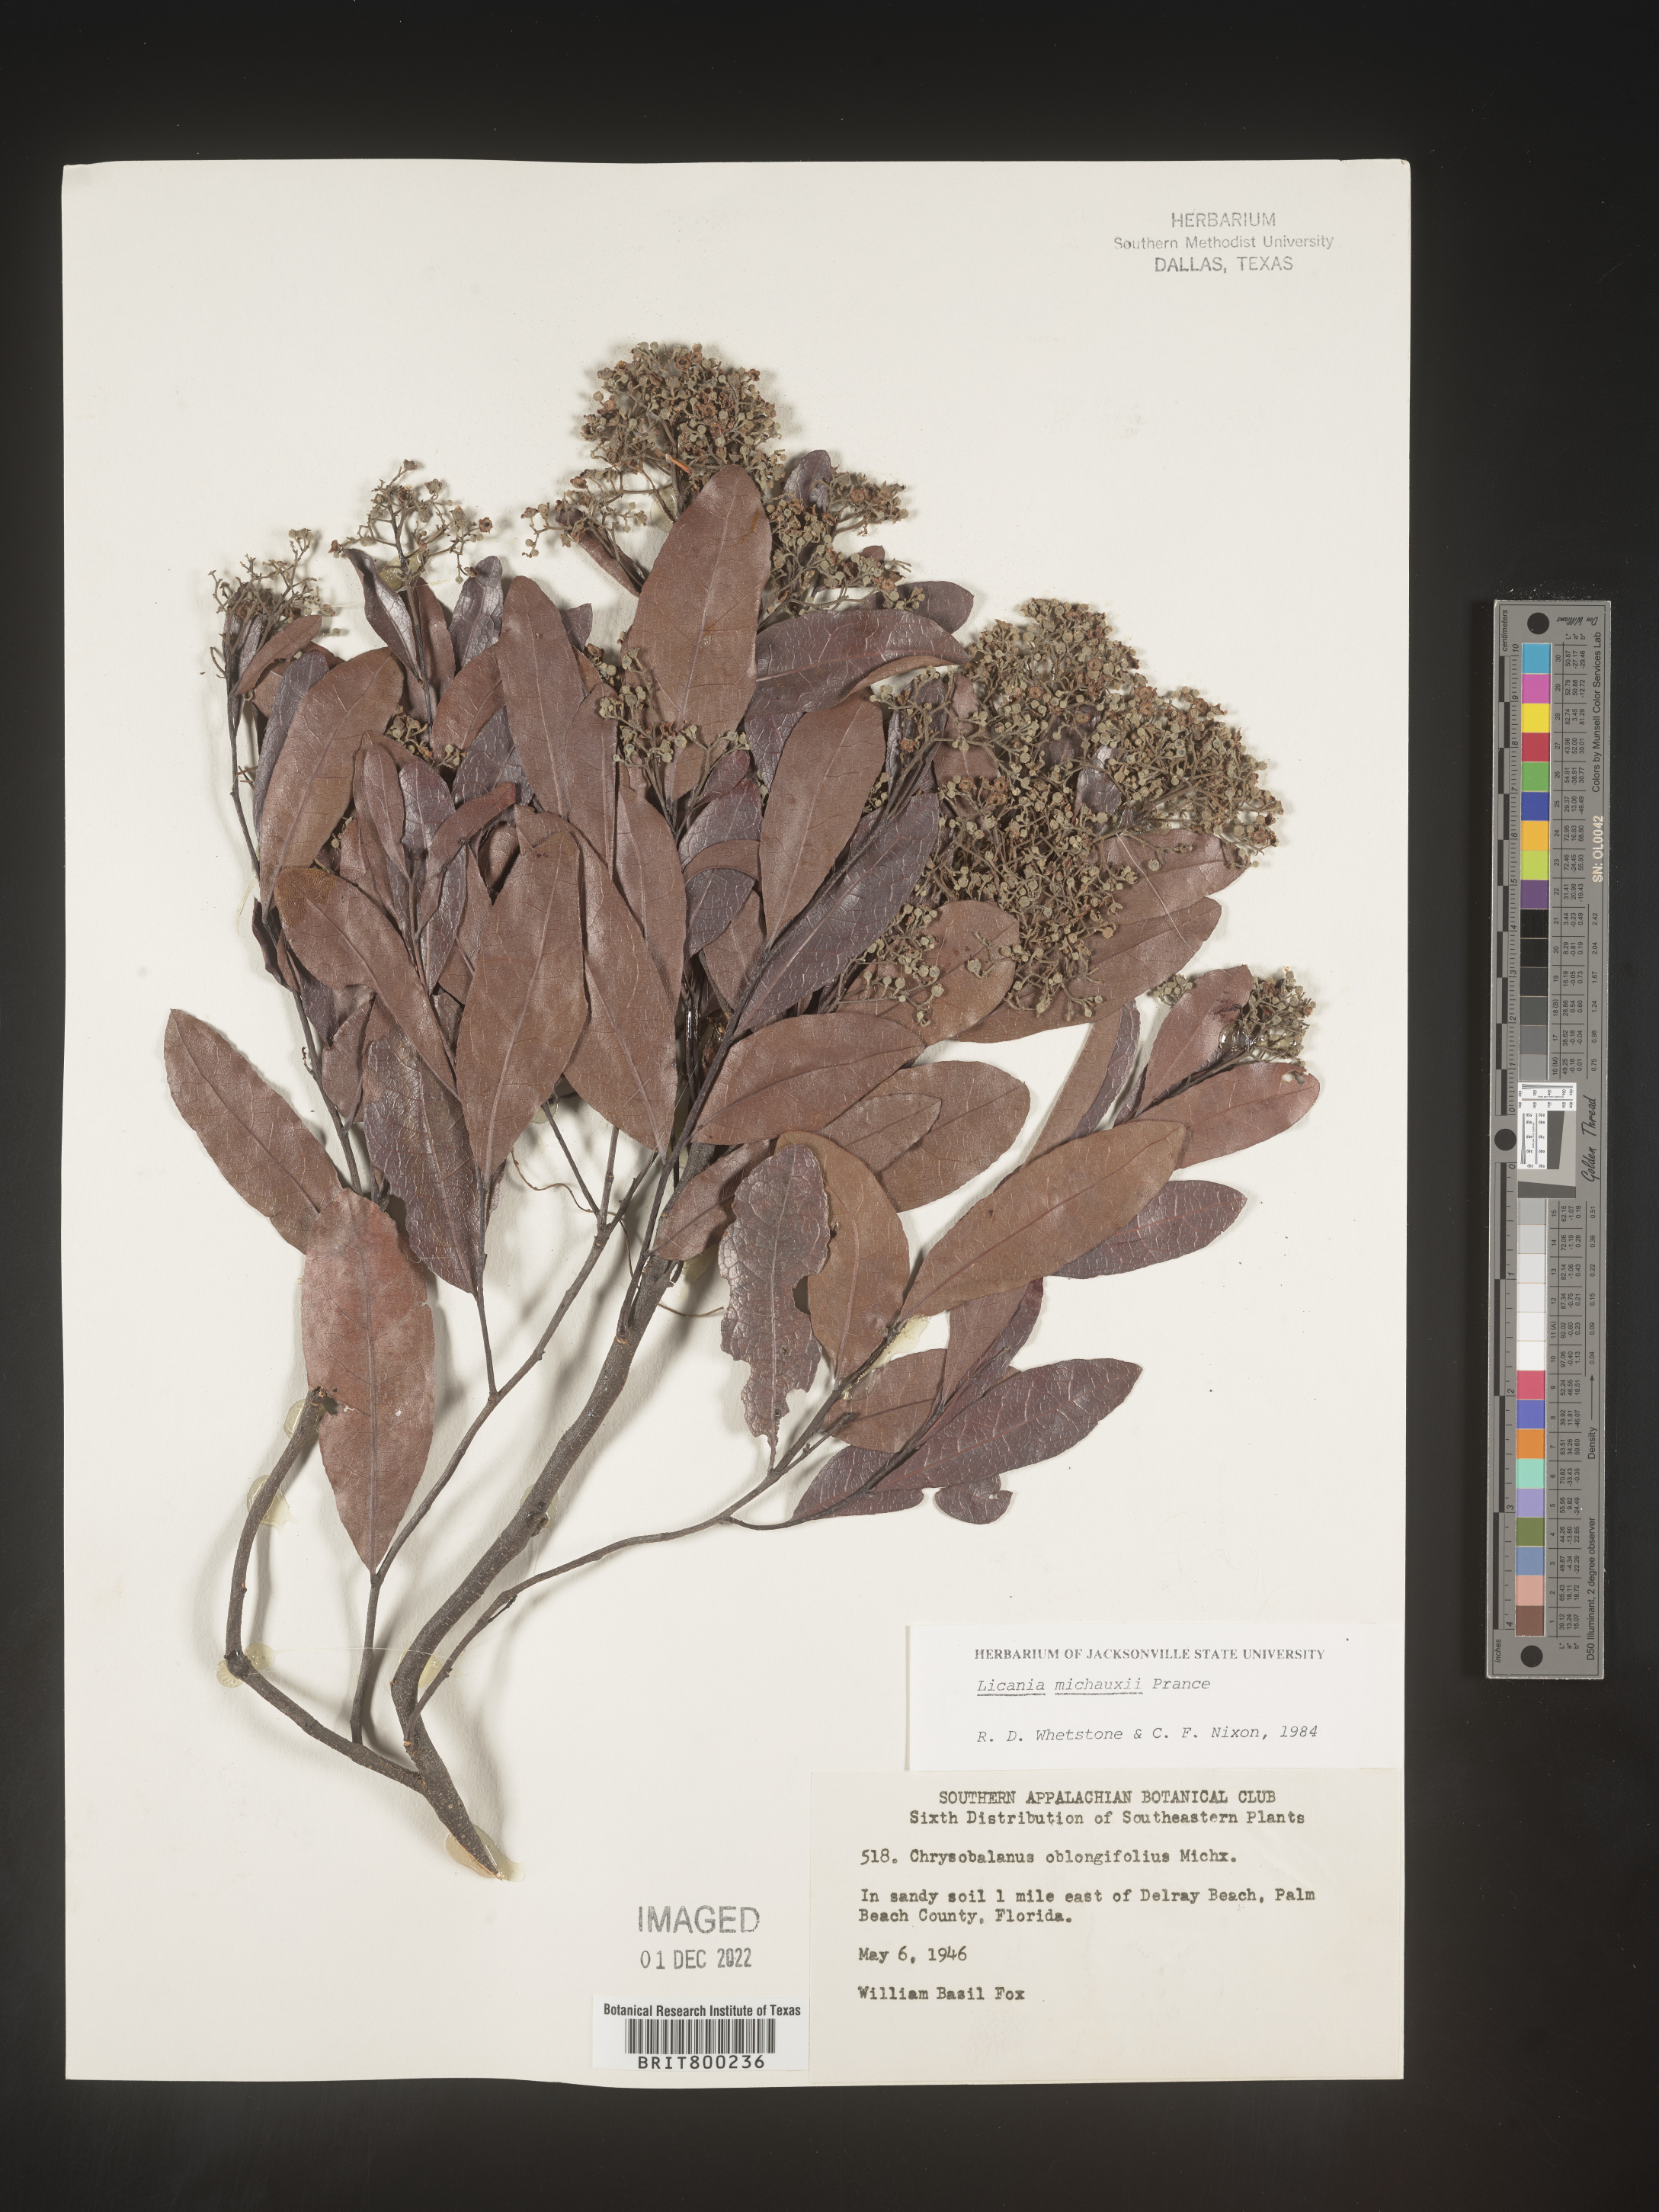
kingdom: Plantae
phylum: Tracheophyta
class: Magnoliopsida
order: Malpighiales
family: Chrysobalanaceae
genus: Geobalanus
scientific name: Geobalanus oblongifolius
